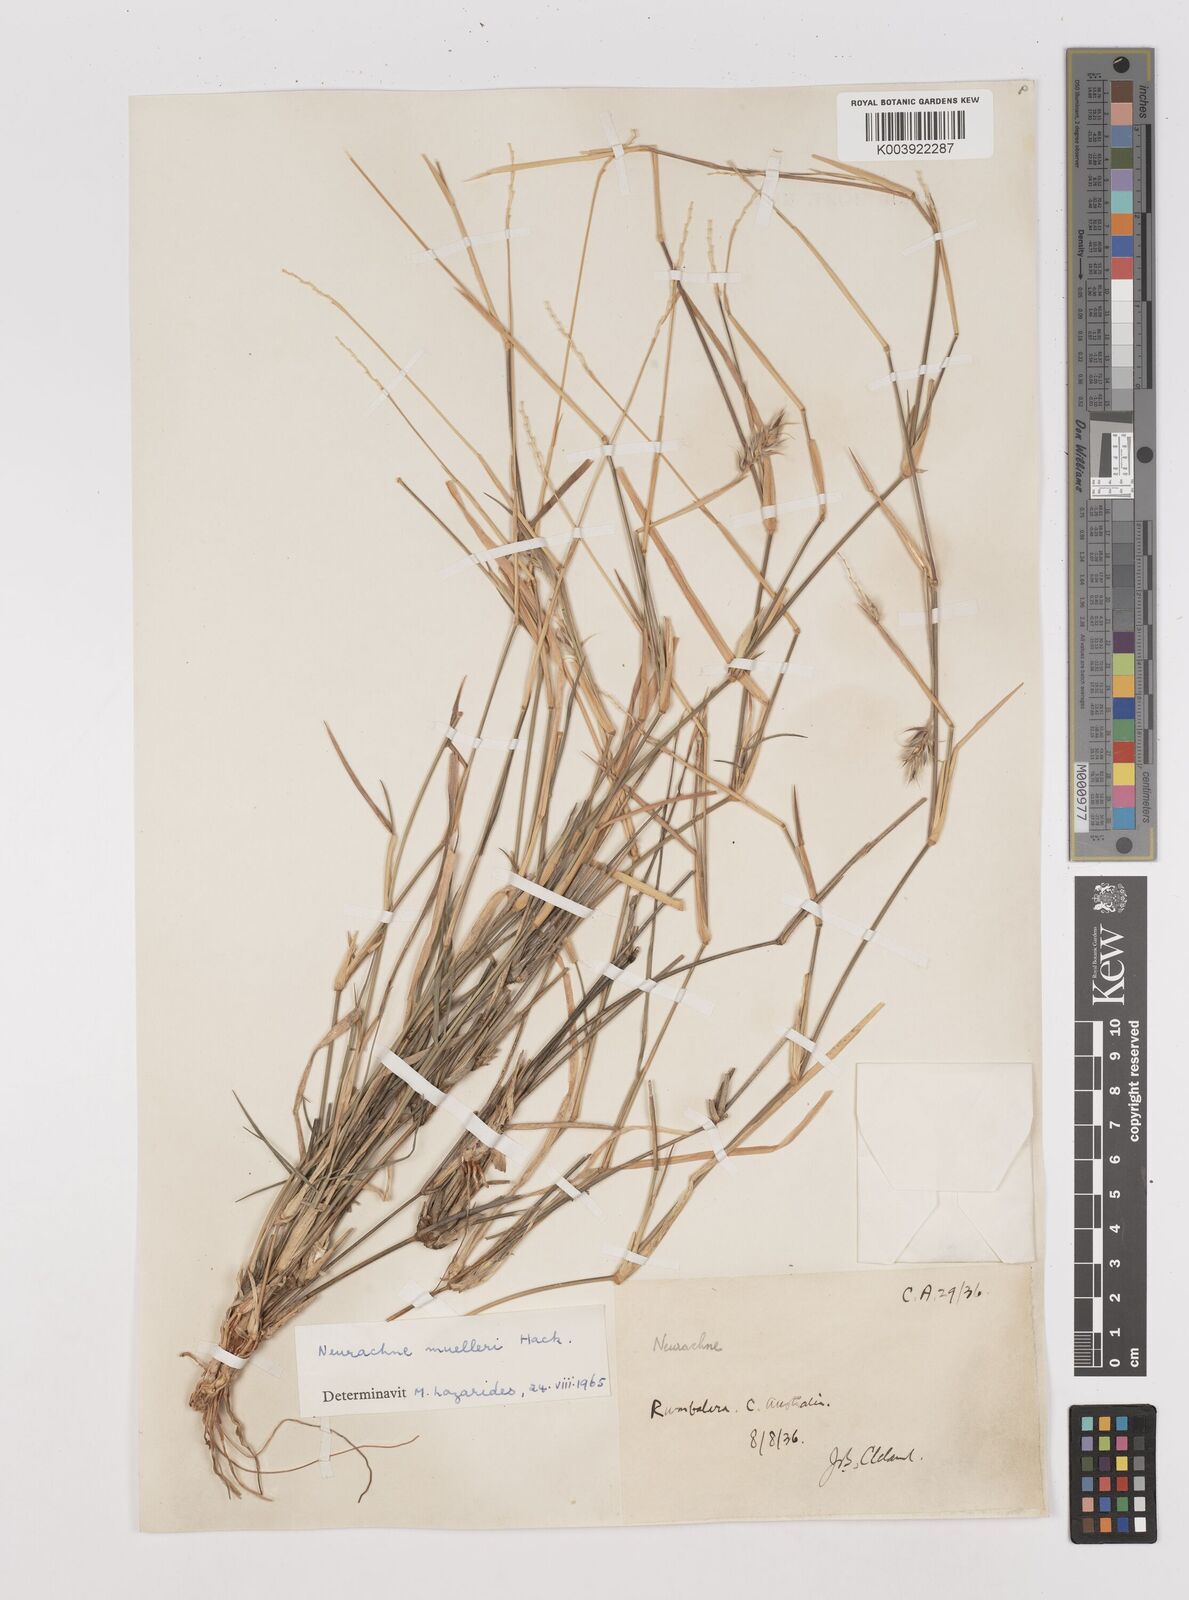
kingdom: Plantae
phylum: Tracheophyta
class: Liliopsida
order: Poales
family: Poaceae
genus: Neurachne
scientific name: Neurachne muelleri
